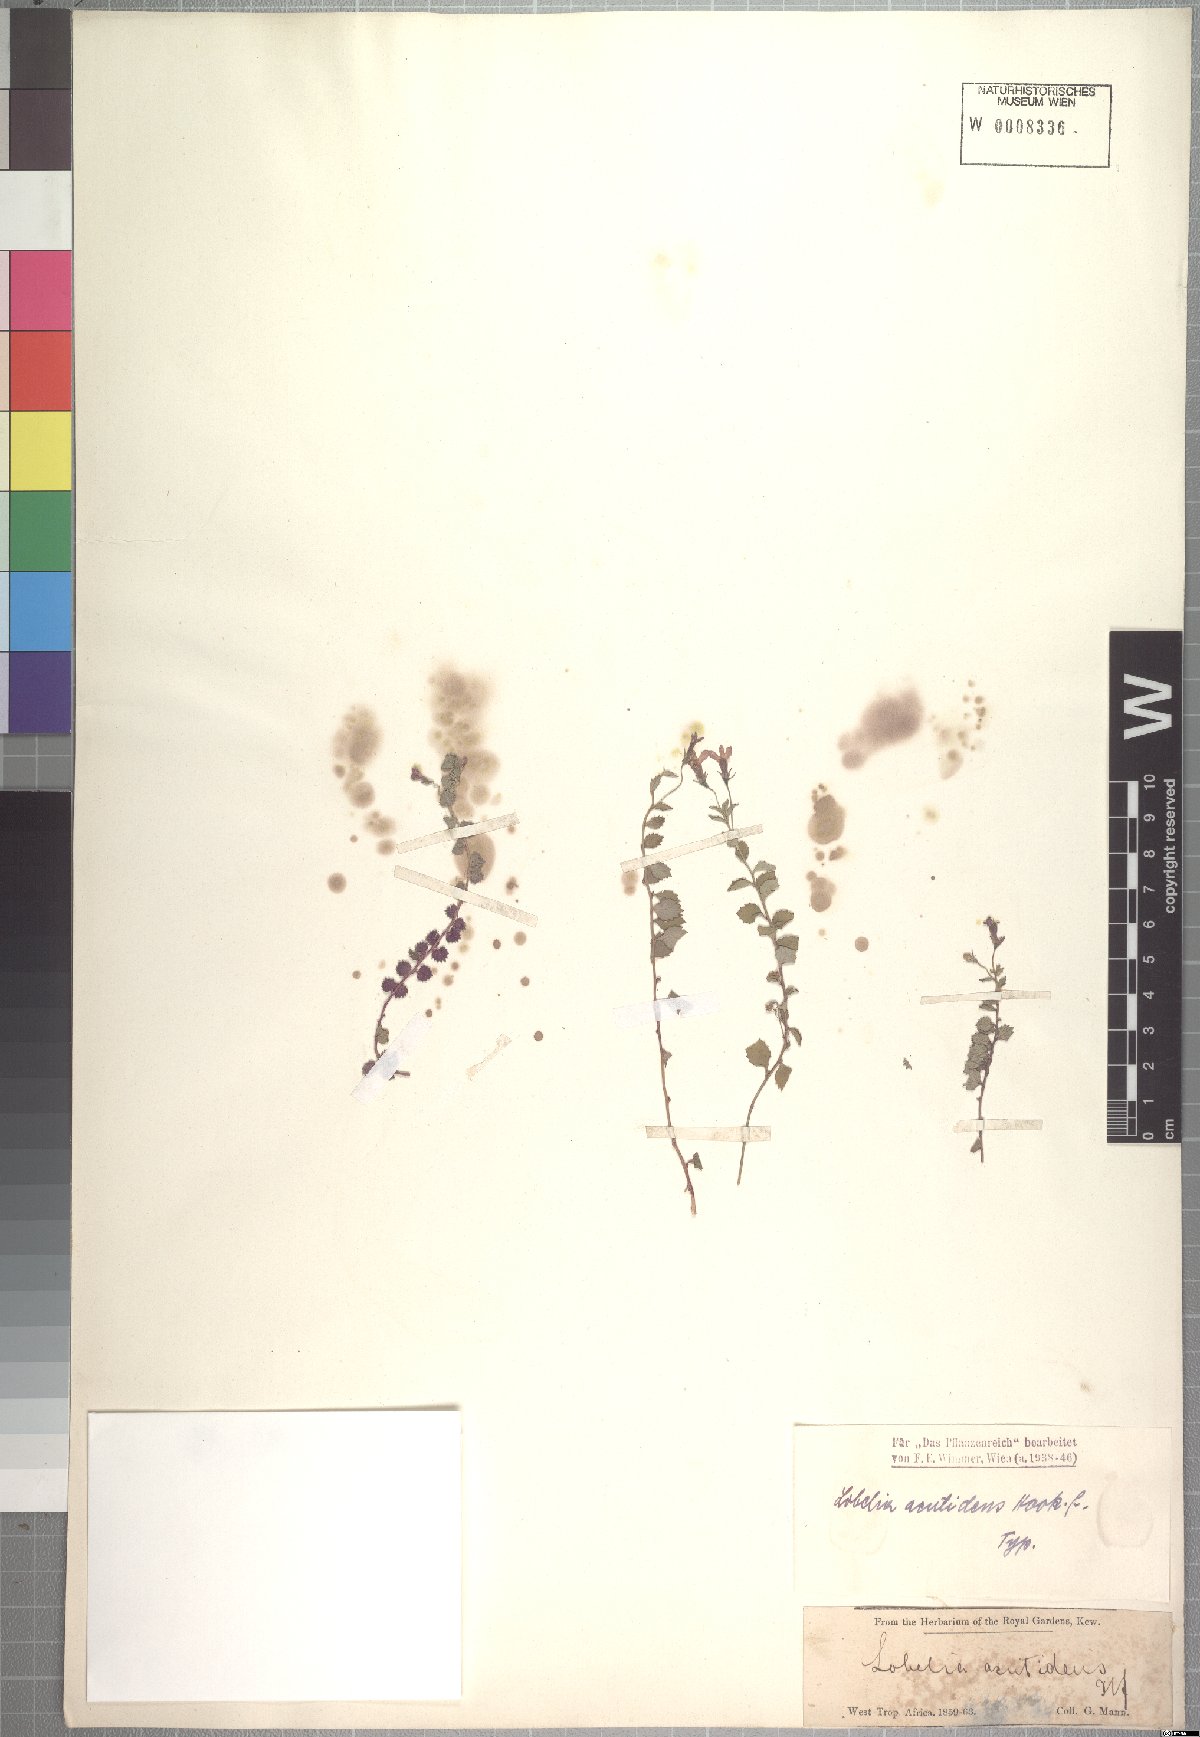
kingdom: Plantae
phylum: Tracheophyta
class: Magnoliopsida
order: Asterales
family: Campanulaceae
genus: Lobelia
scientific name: Lobelia acutidens
